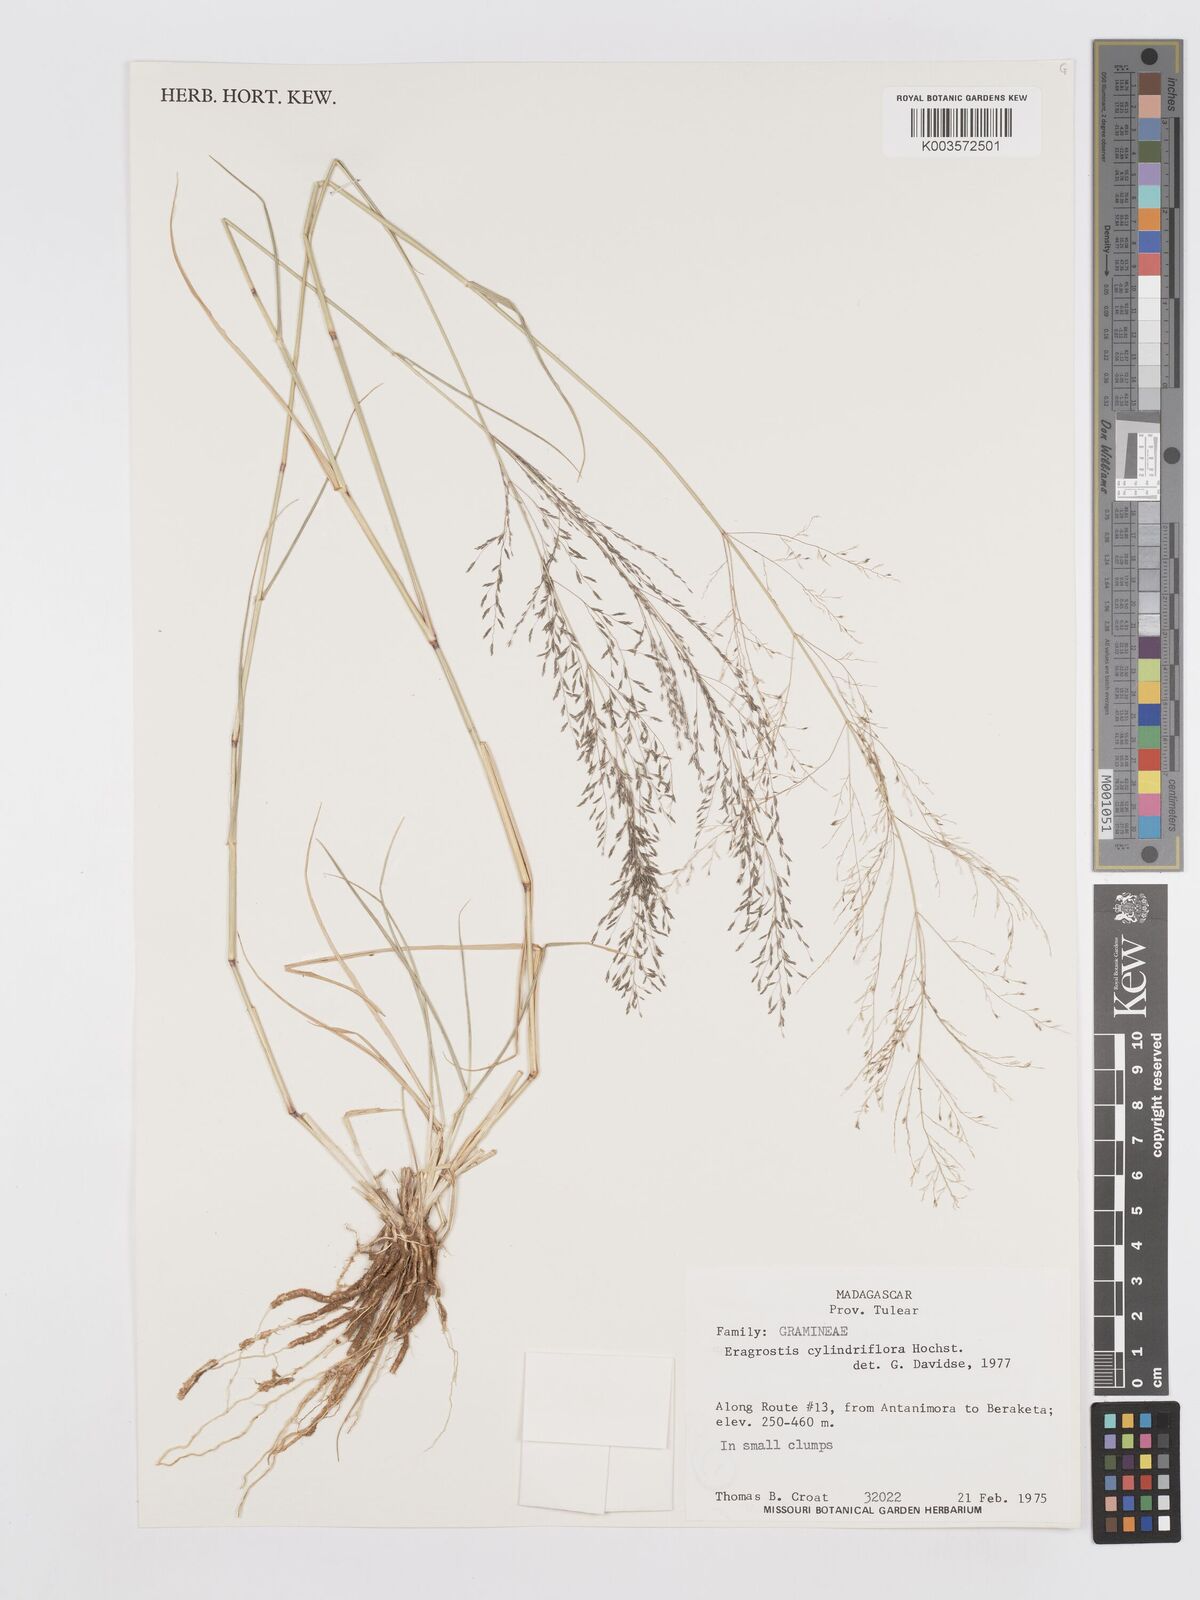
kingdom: Plantae
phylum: Tracheophyta
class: Liliopsida
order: Poales
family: Poaceae
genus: Eragrostis
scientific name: Eragrostis cylindriflora
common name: Cylinderflower lovegrass
